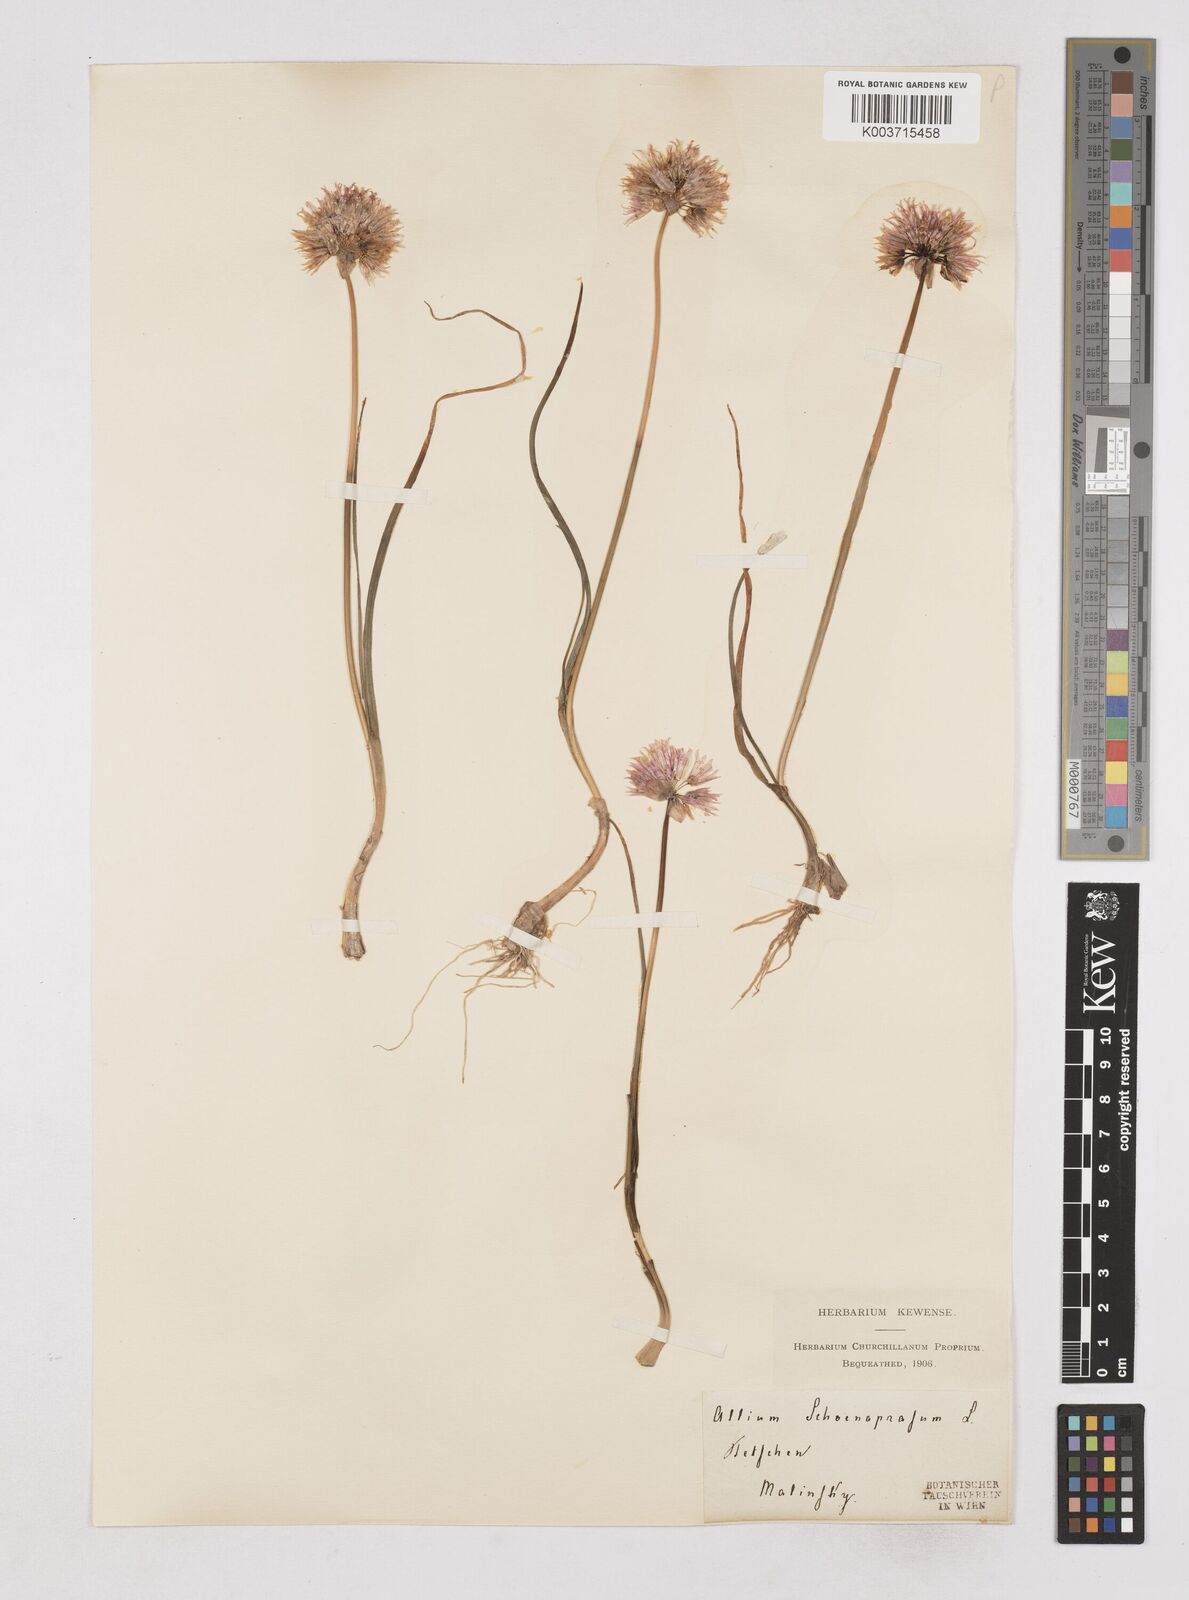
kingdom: Plantae
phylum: Tracheophyta
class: Liliopsida
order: Asparagales
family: Amaryllidaceae
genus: Allium
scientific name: Allium schoenoprasum
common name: Chives
